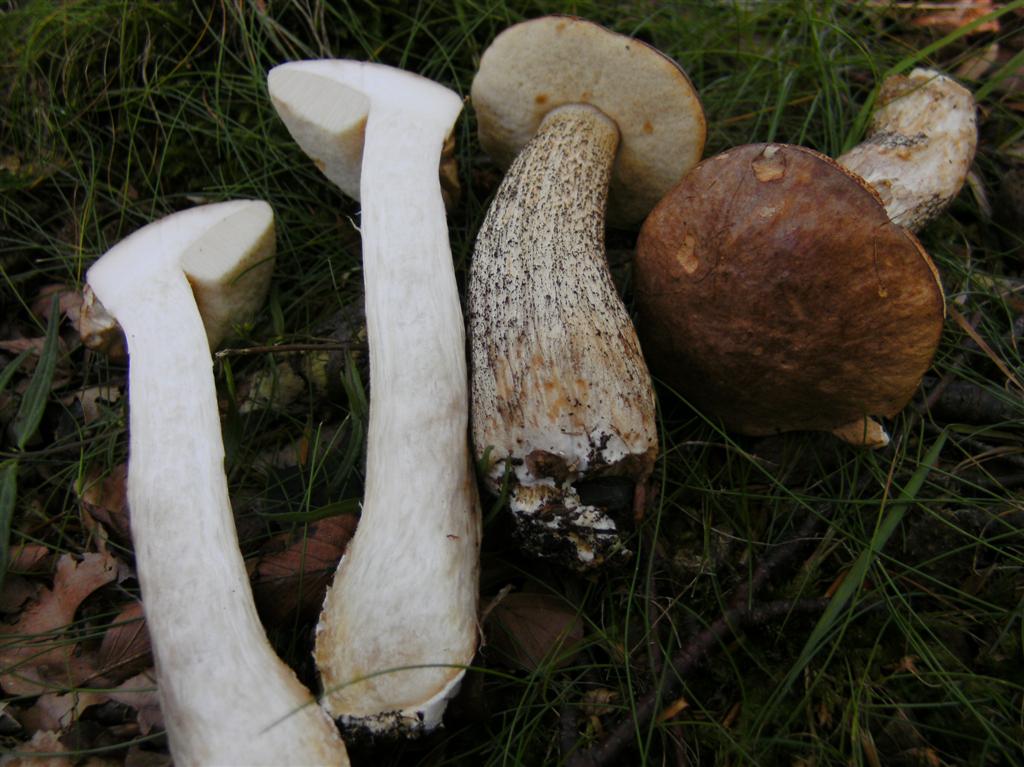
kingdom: Fungi
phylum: Basidiomycota
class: Agaricomycetes
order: Boletales
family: Boletaceae
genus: Leccinum
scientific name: Leccinum scabrum
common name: brun skælrørhat
